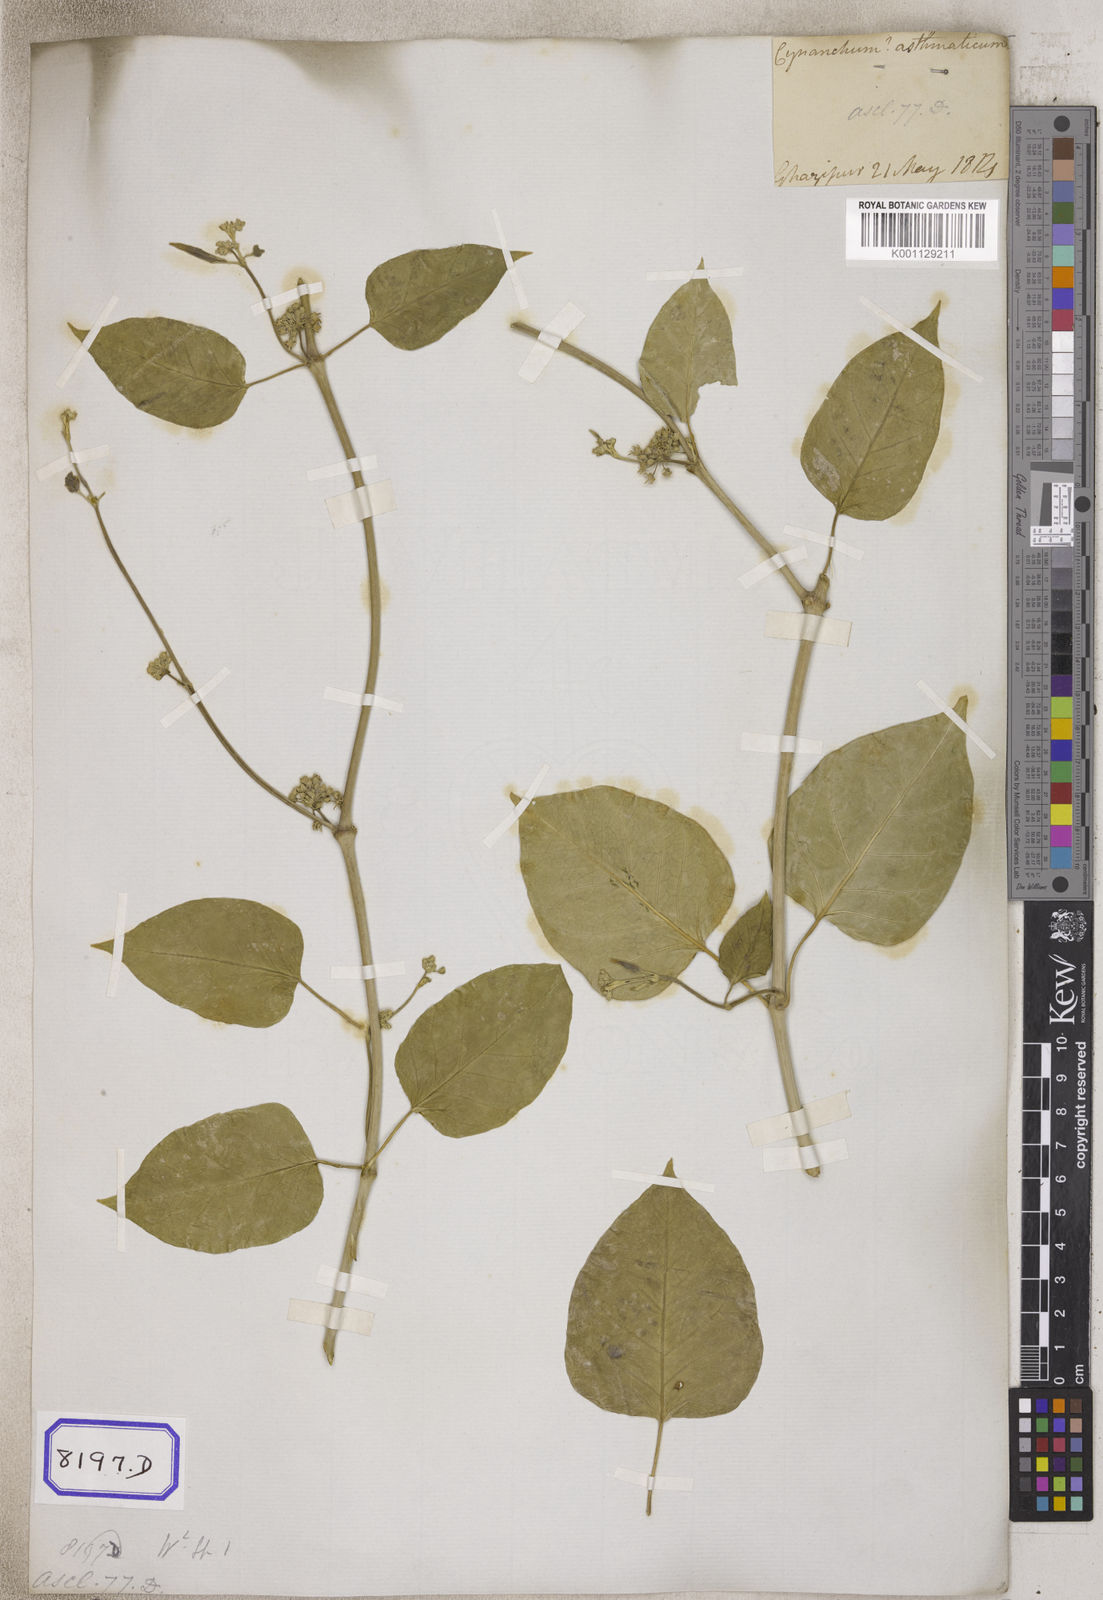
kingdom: Plantae
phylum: Tracheophyta
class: Magnoliopsida
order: Gentianales
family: Apocynaceae
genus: Leptadenia
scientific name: Leptadenia reticulata
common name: Leptadenia
